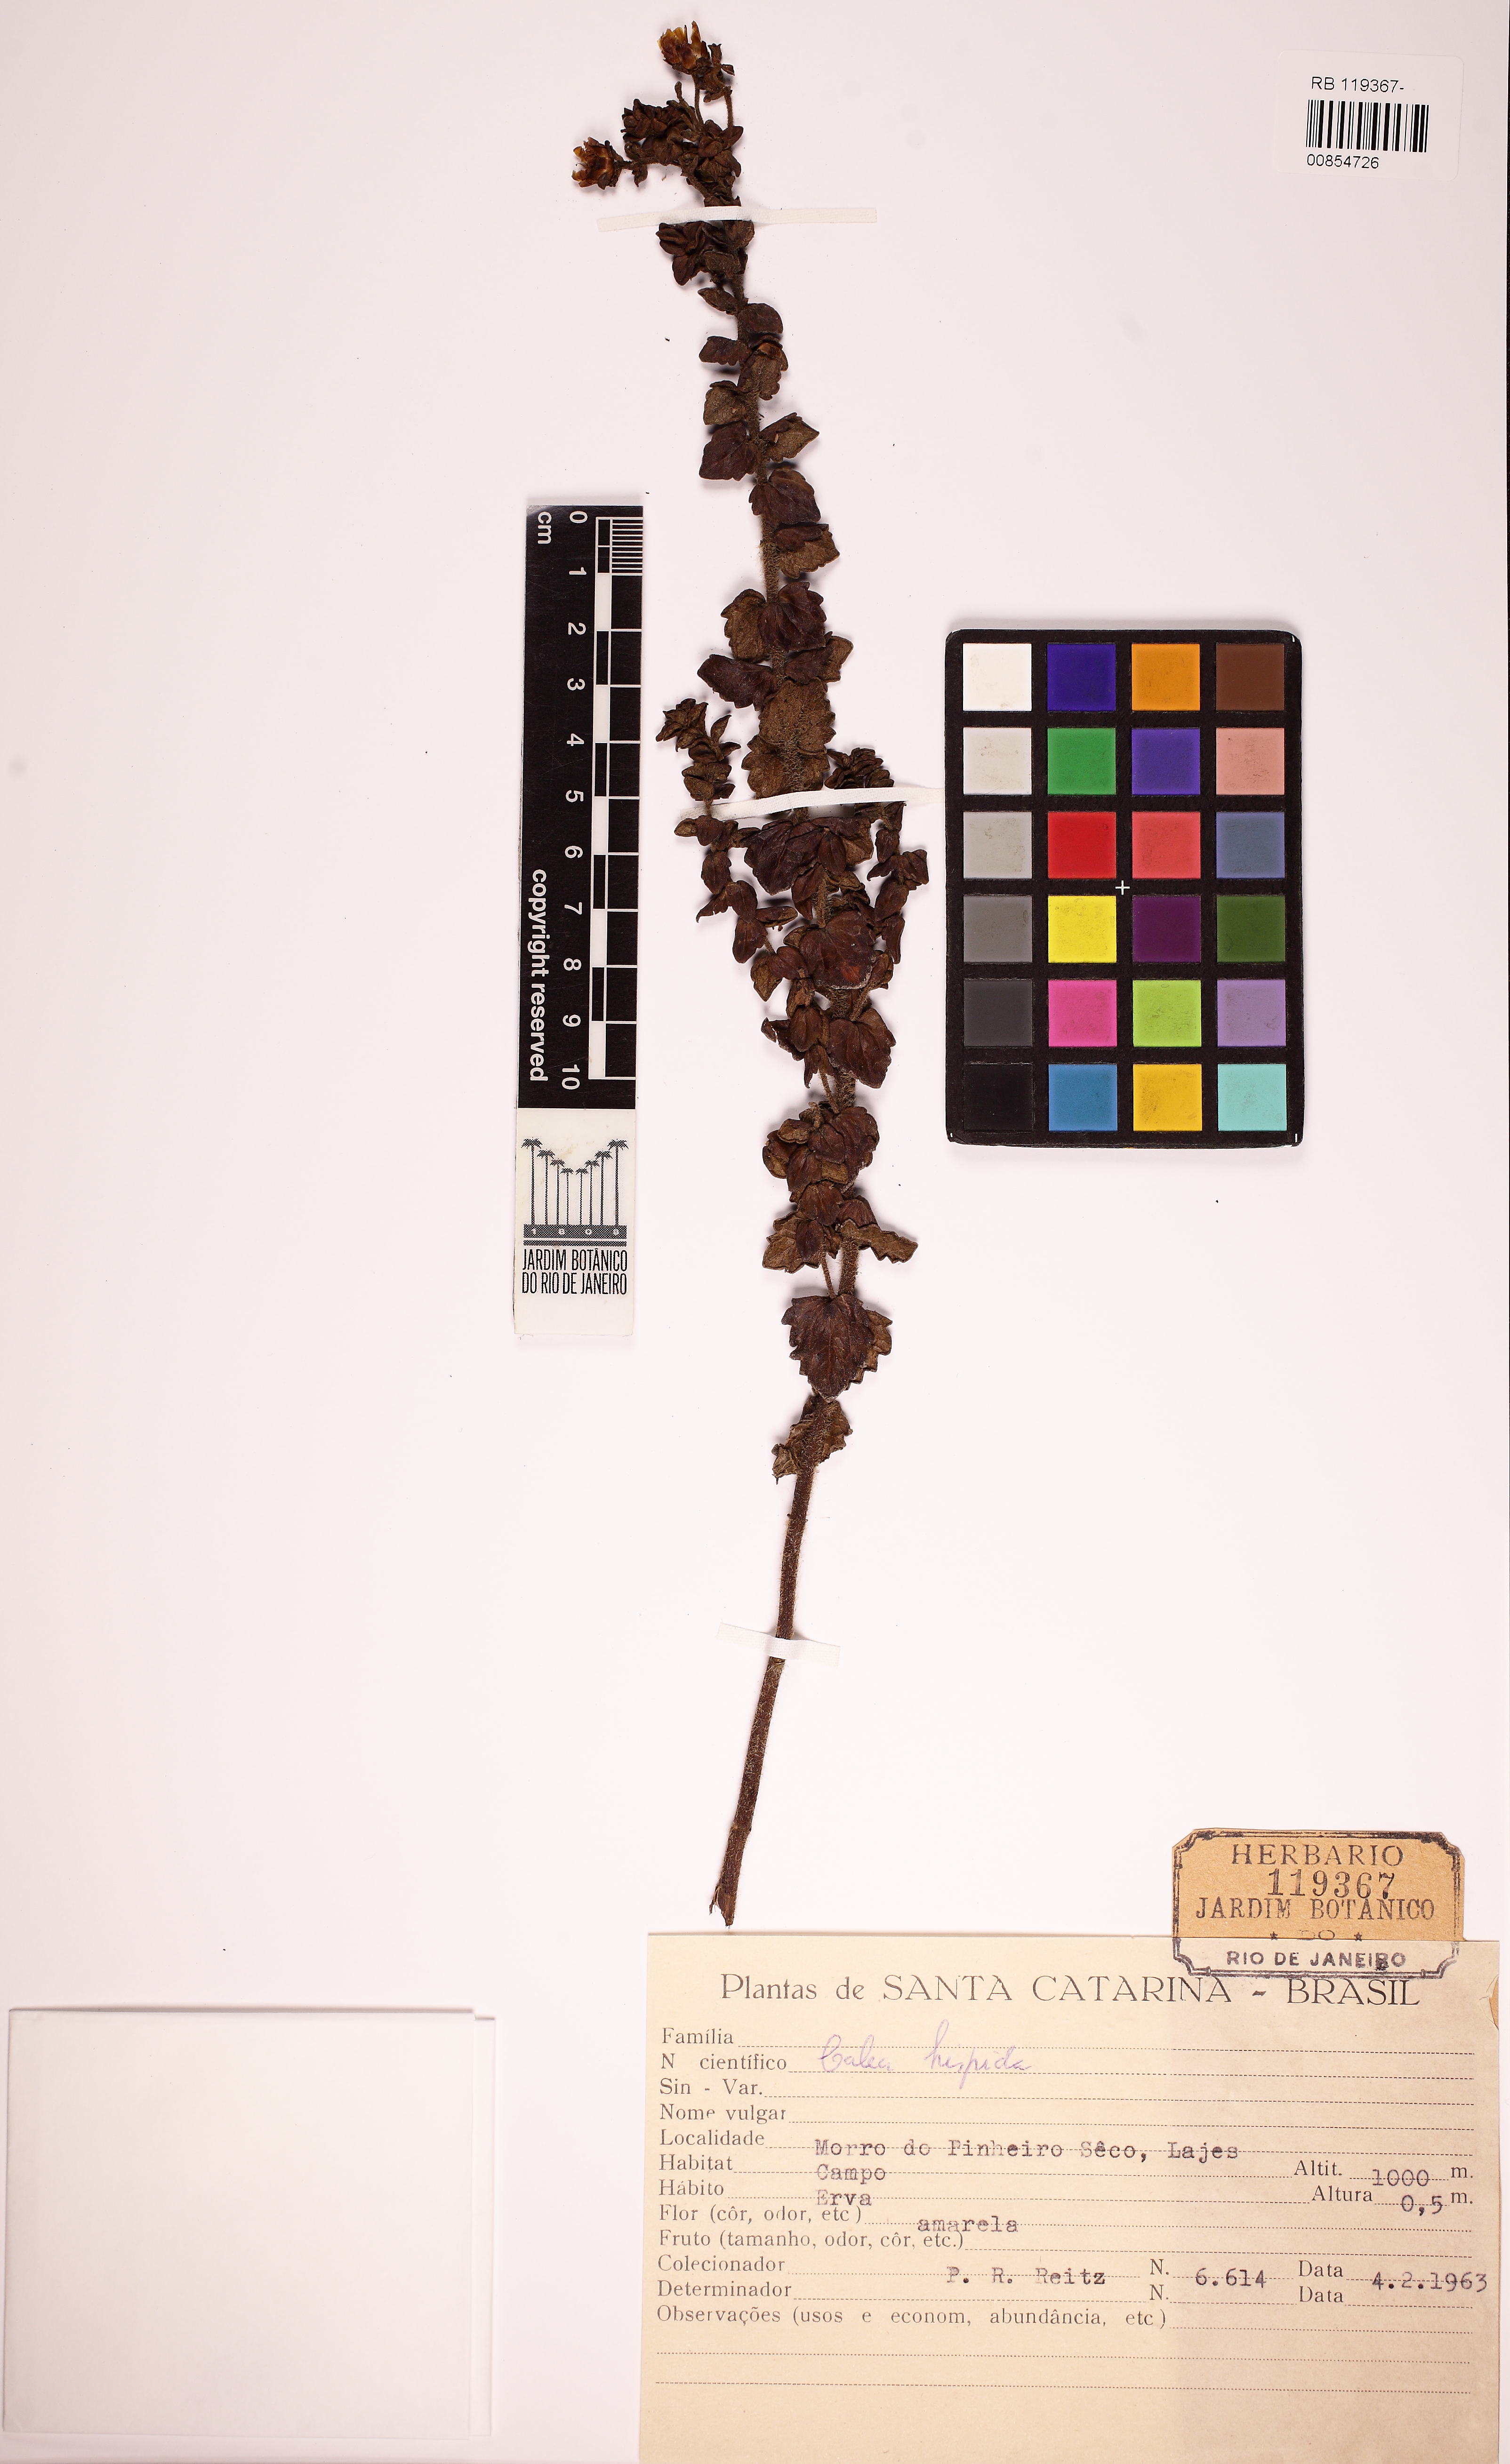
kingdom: Plantae
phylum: Tracheophyta
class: Magnoliopsida
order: Asterales
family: Asteraceae
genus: Calea
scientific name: Calea triantha
